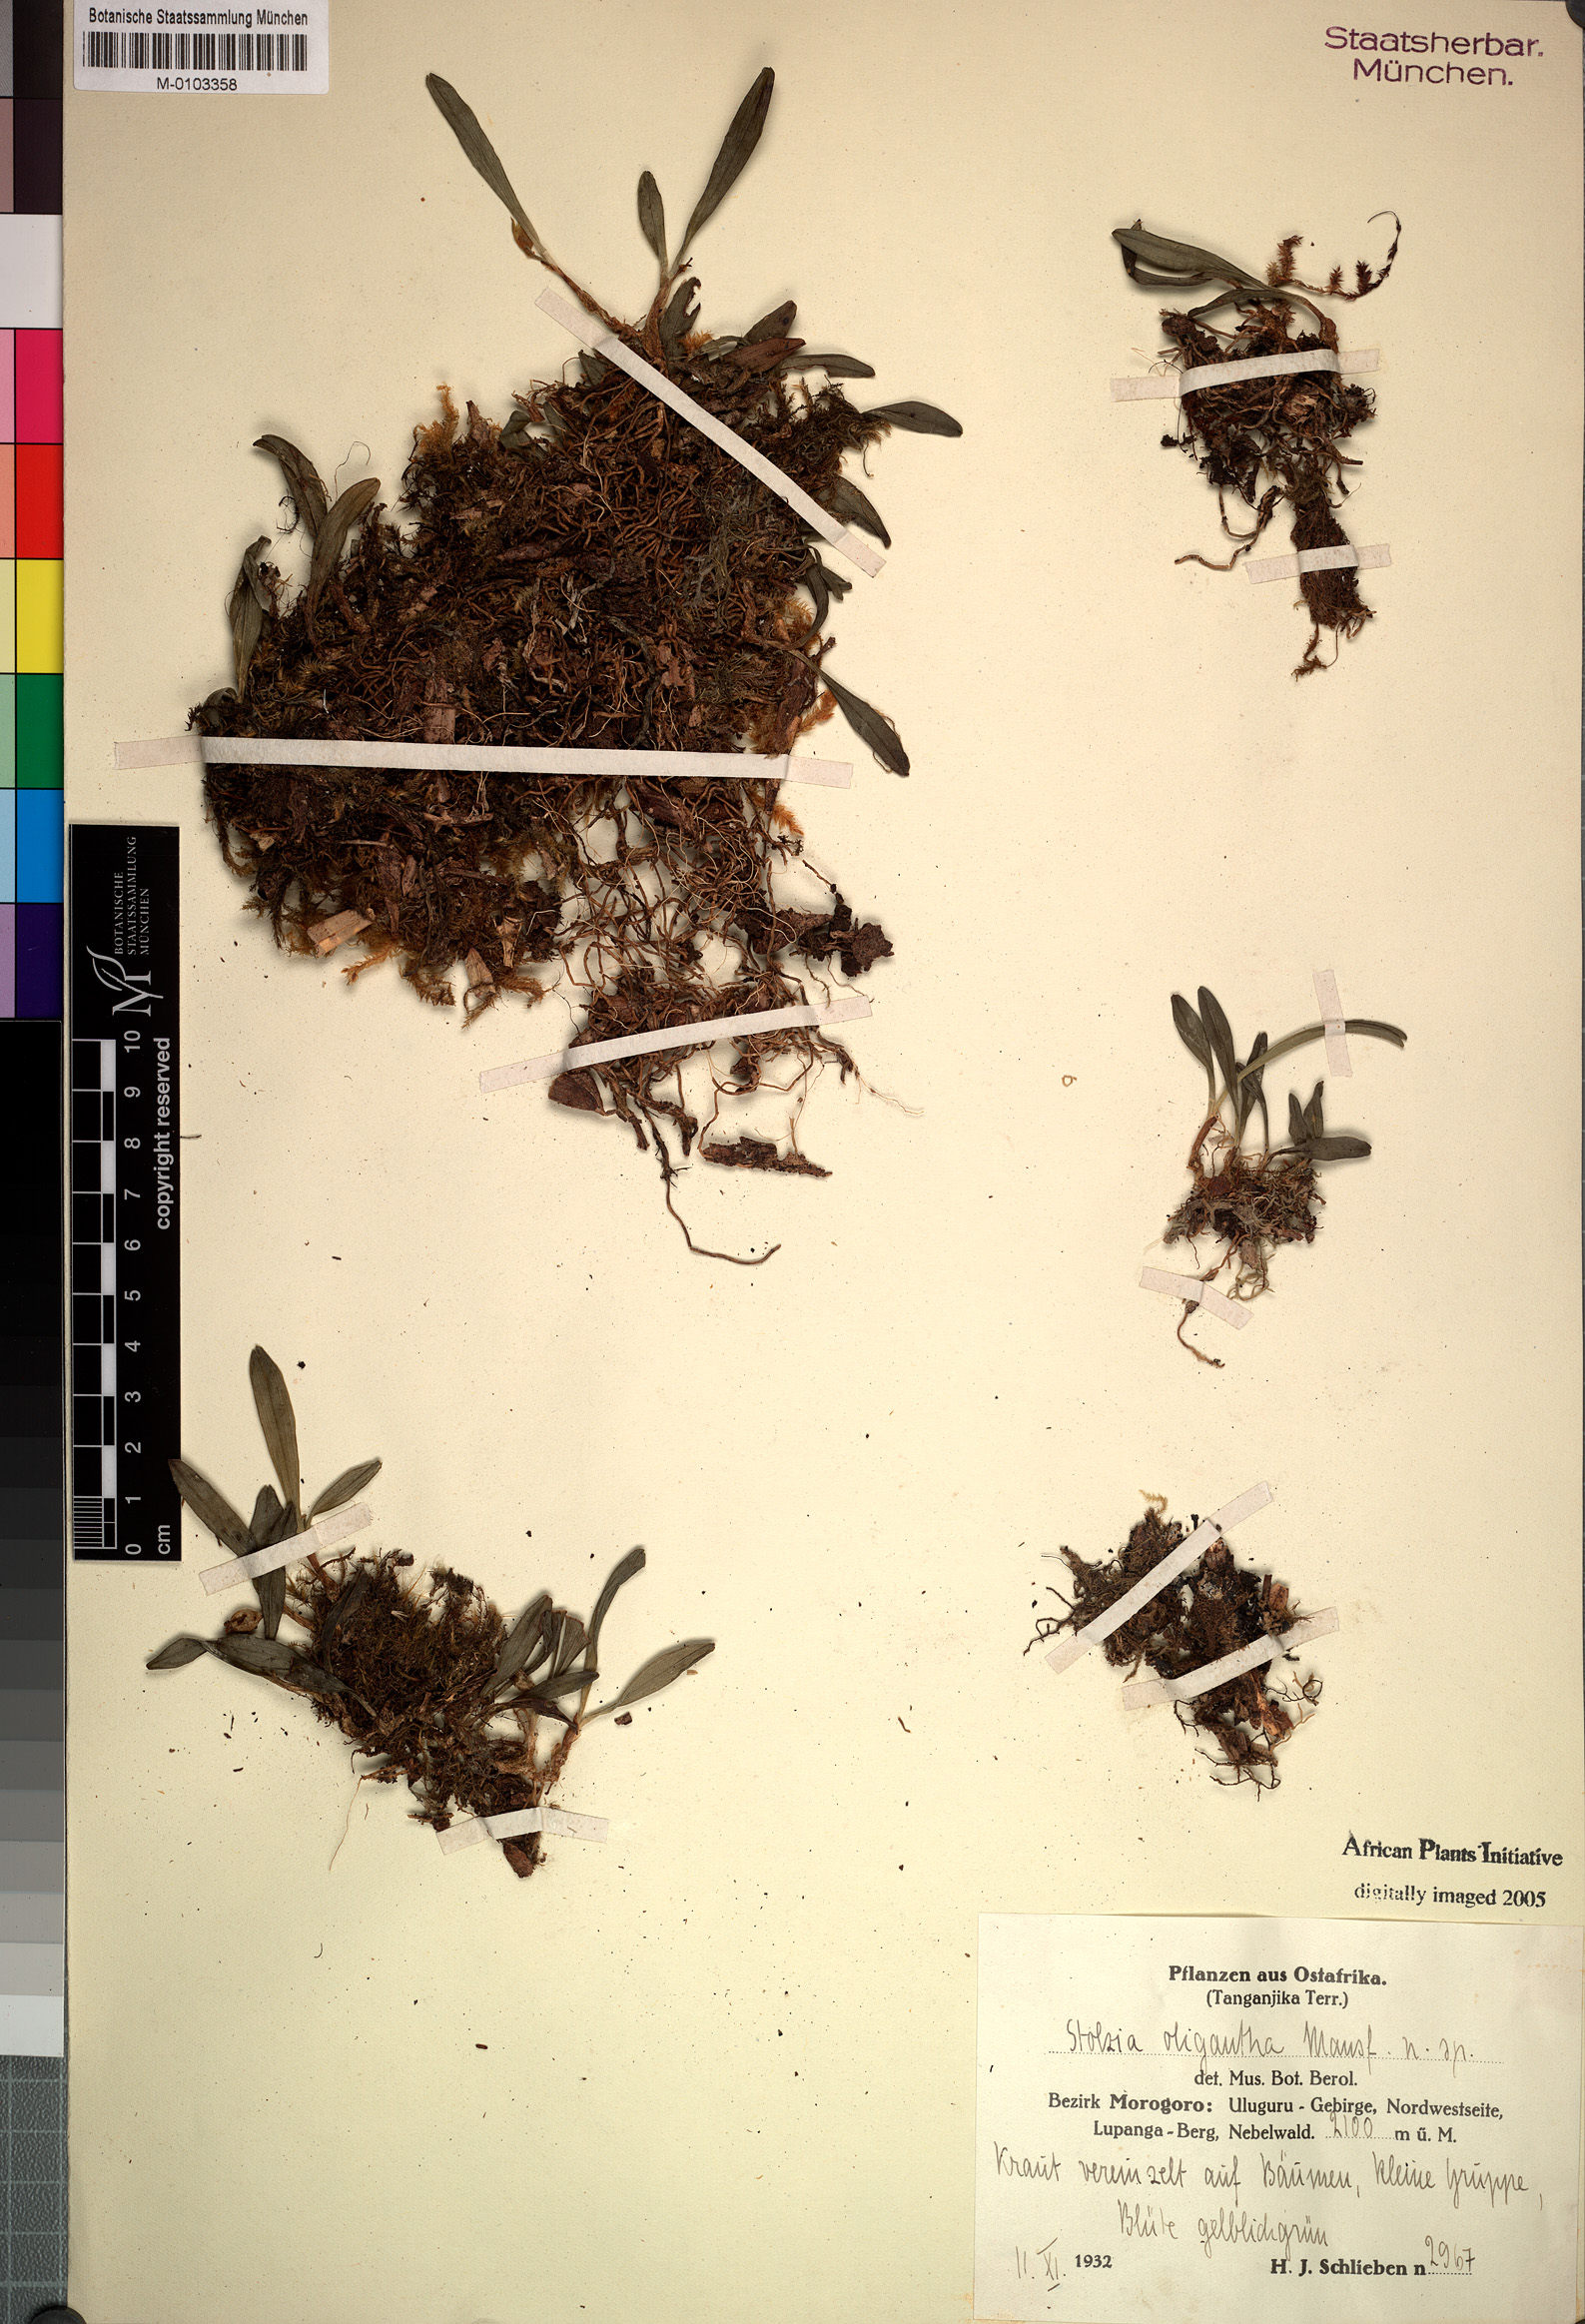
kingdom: Plantae
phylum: Tracheophyta
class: Liliopsida
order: Asparagales
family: Orchidaceae
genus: Porpax
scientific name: Porpax oligantha
